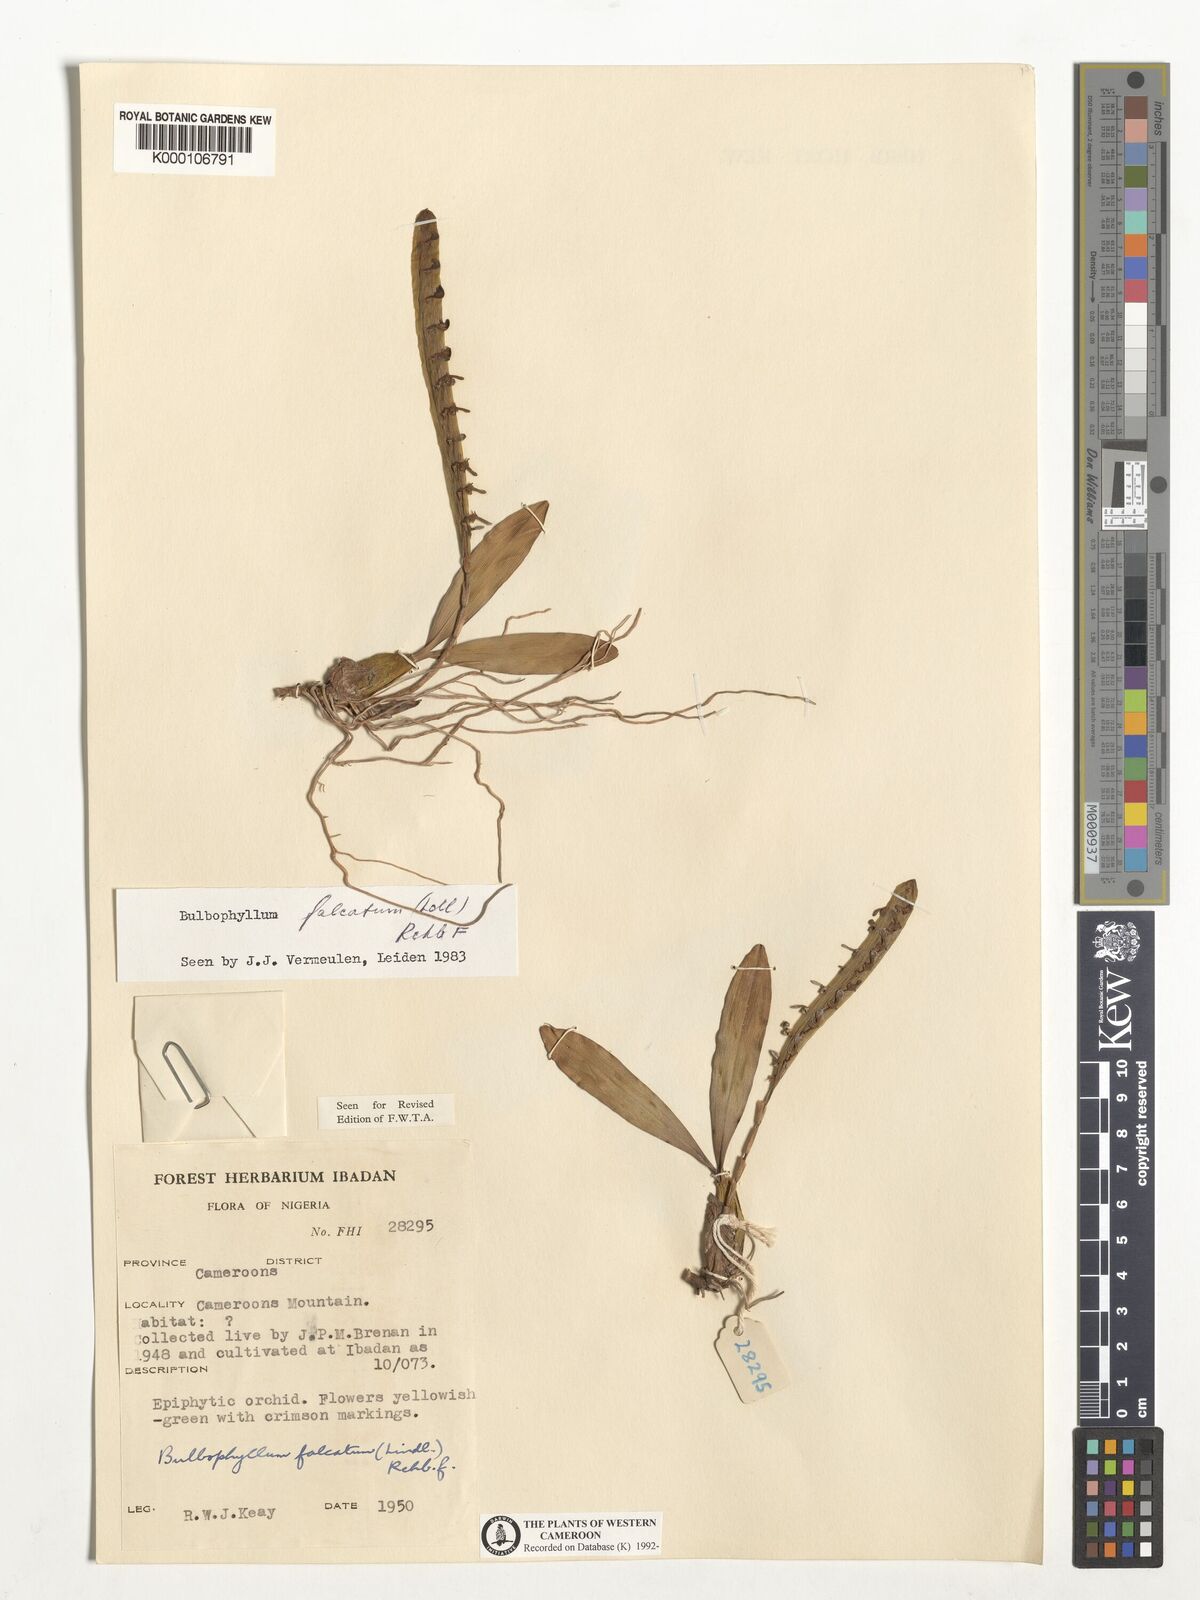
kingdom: Plantae
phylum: Tracheophyta
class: Liliopsida
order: Asparagales
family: Orchidaceae
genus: Bulbophyllum
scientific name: Bulbophyllum falcatum
